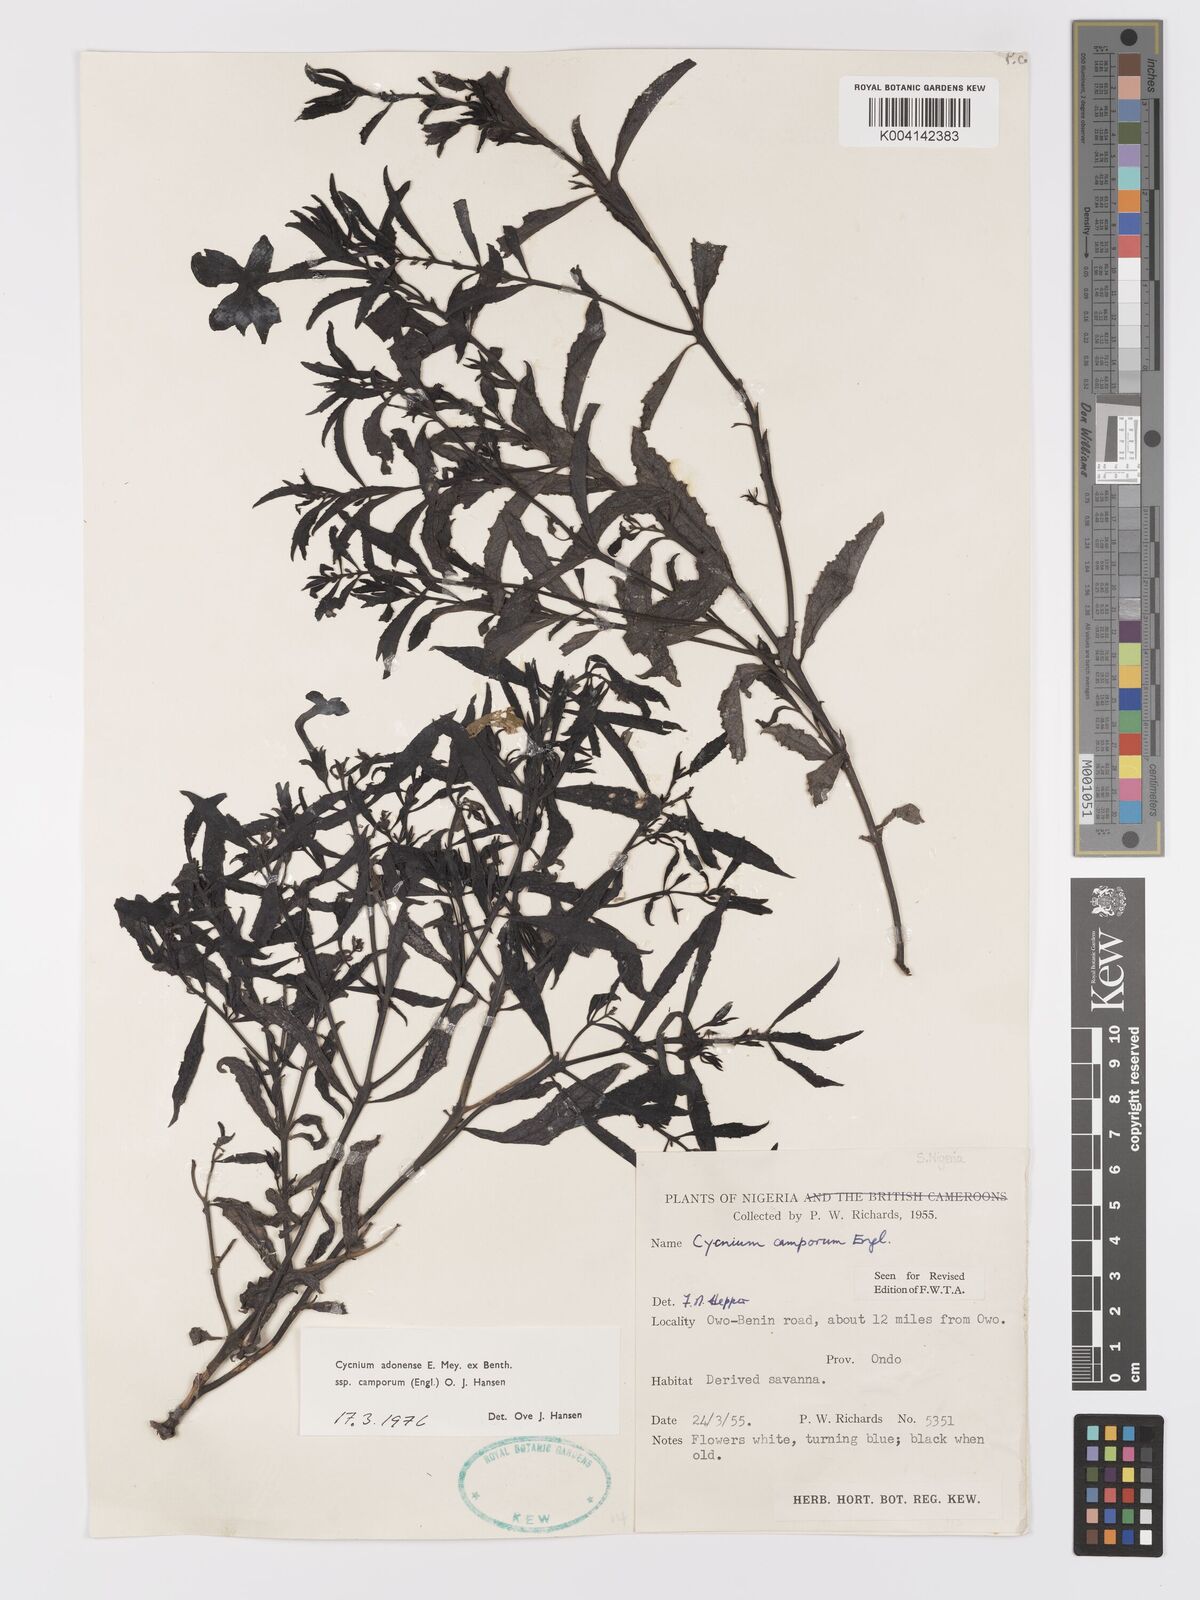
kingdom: Plantae
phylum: Tracheophyta
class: Magnoliopsida
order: Lamiales
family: Orobanchaceae
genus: Cycnium
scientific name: Cycnium adoense
